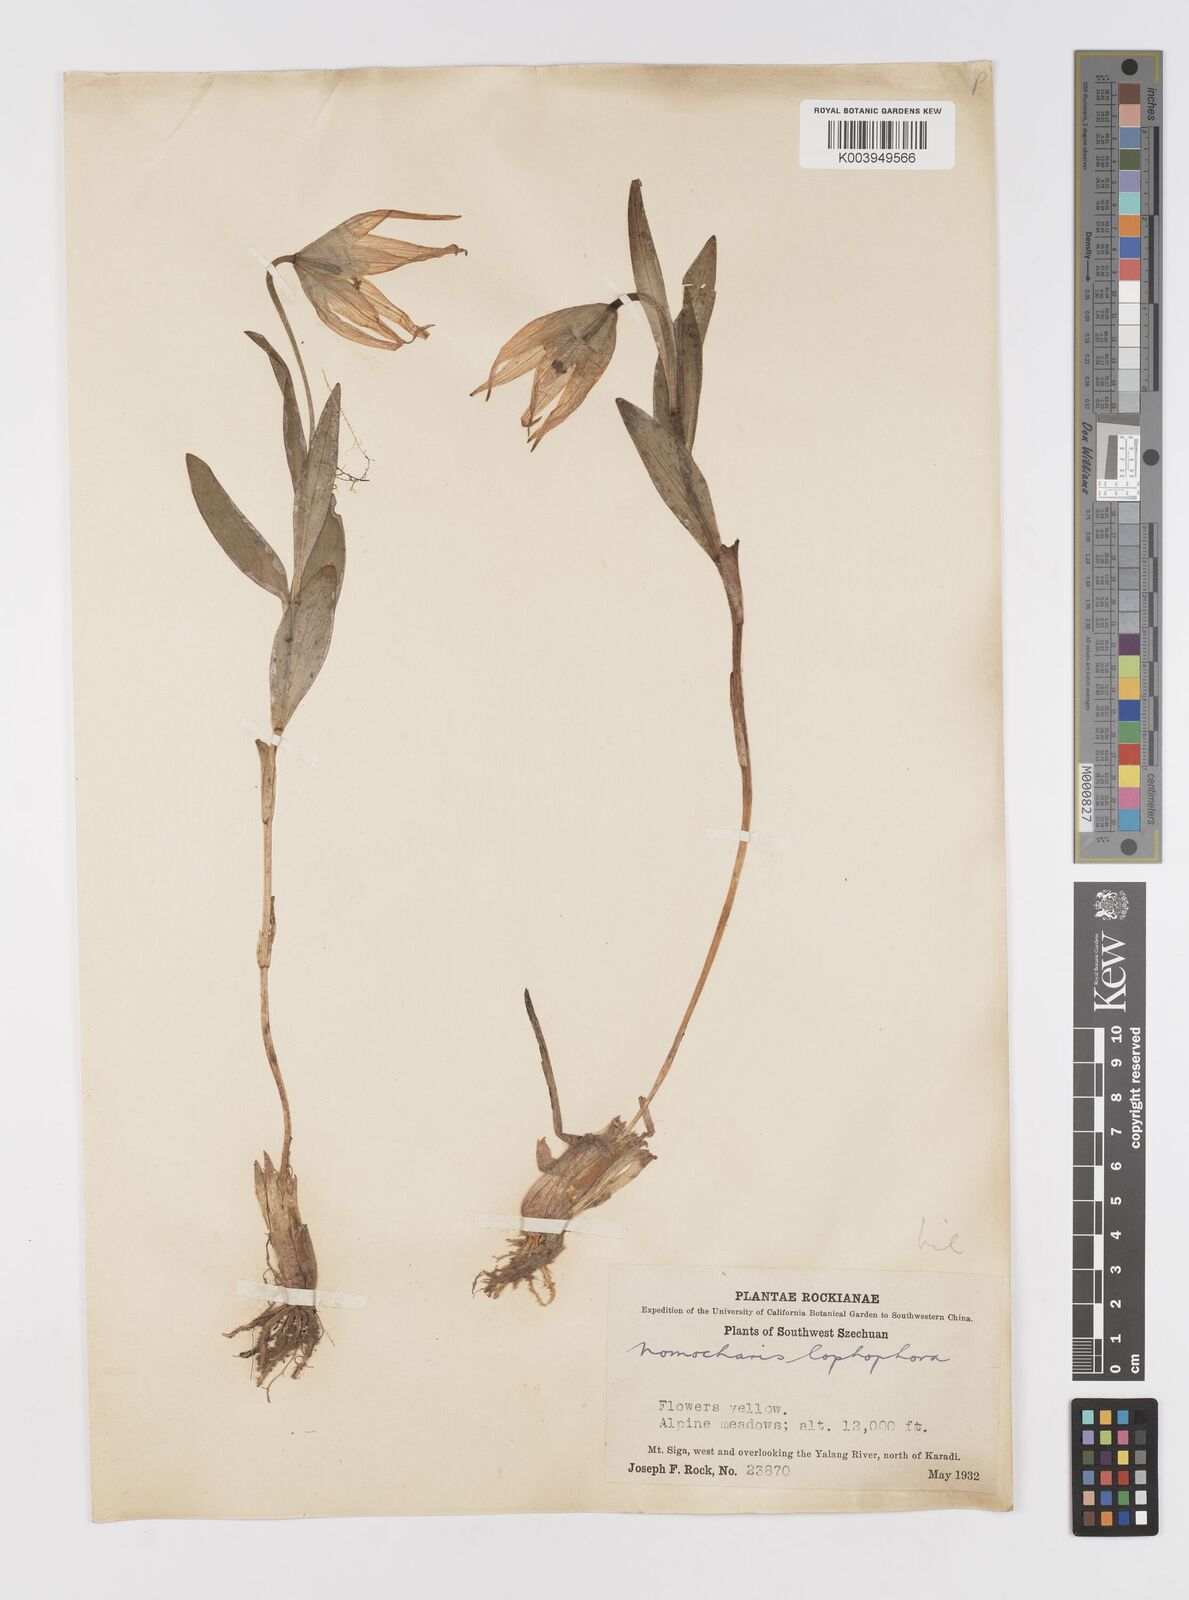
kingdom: Plantae
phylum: Tracheophyta
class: Liliopsida
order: Liliales
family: Liliaceae
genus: Lilium
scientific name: Lilium lophophorum
